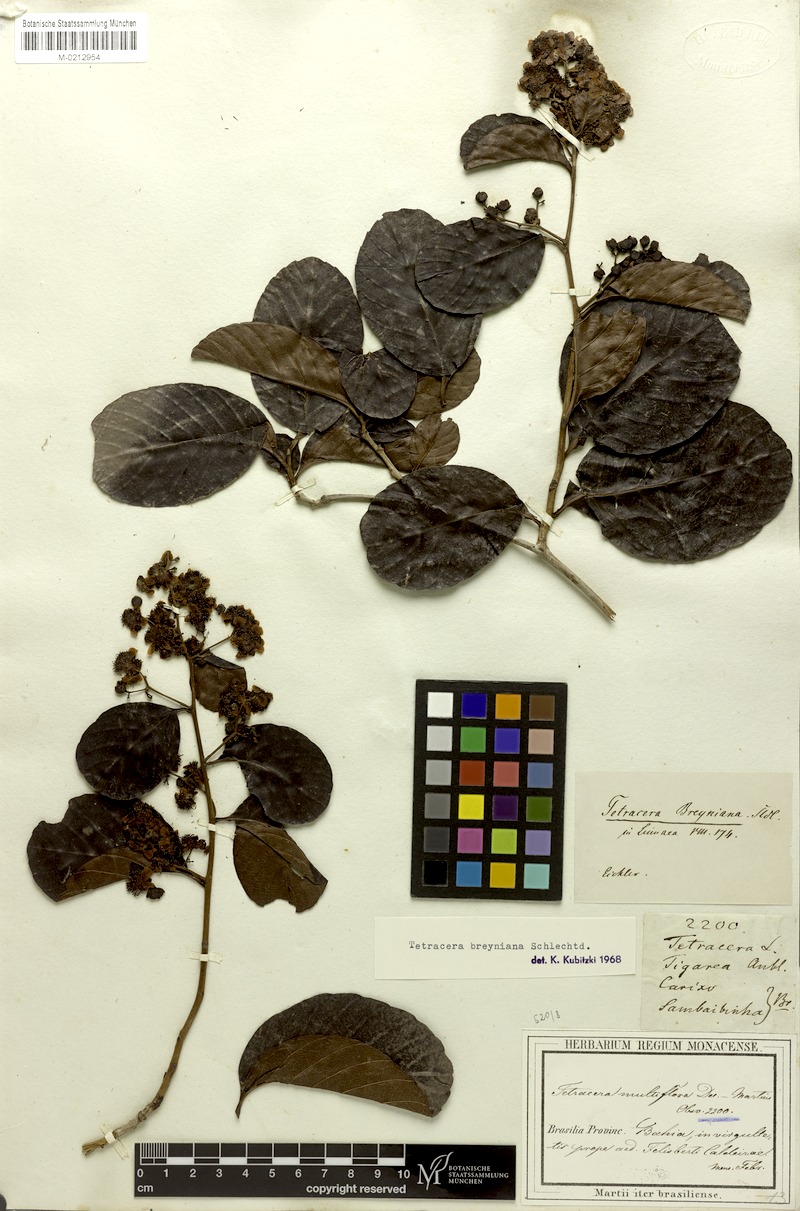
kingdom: Plantae
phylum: Tracheophyta
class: Magnoliopsida
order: Dilleniales
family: Dilleniaceae
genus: Tetracera
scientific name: Tetracera breyniana
